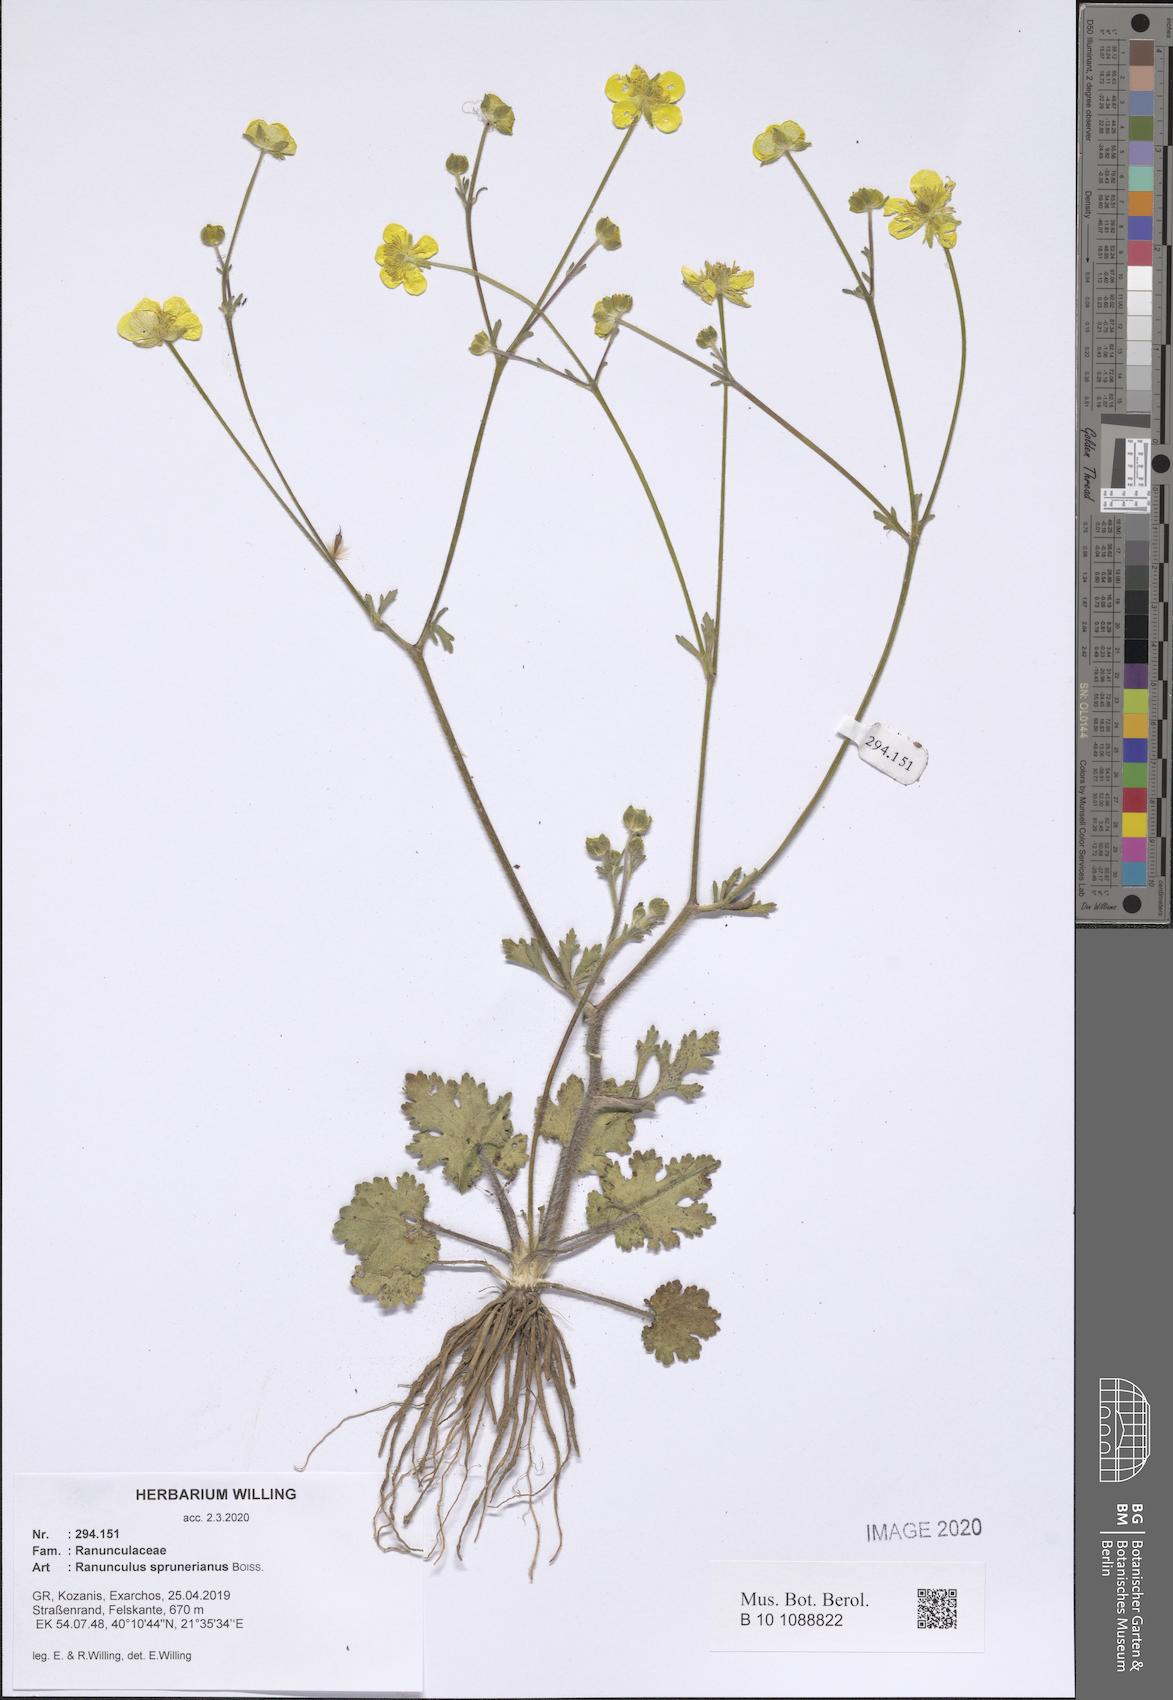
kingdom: Plantae
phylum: Tracheophyta
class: Magnoliopsida
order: Ranunculales
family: Ranunculaceae
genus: Ranunculus
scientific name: Ranunculus sprunerianus
